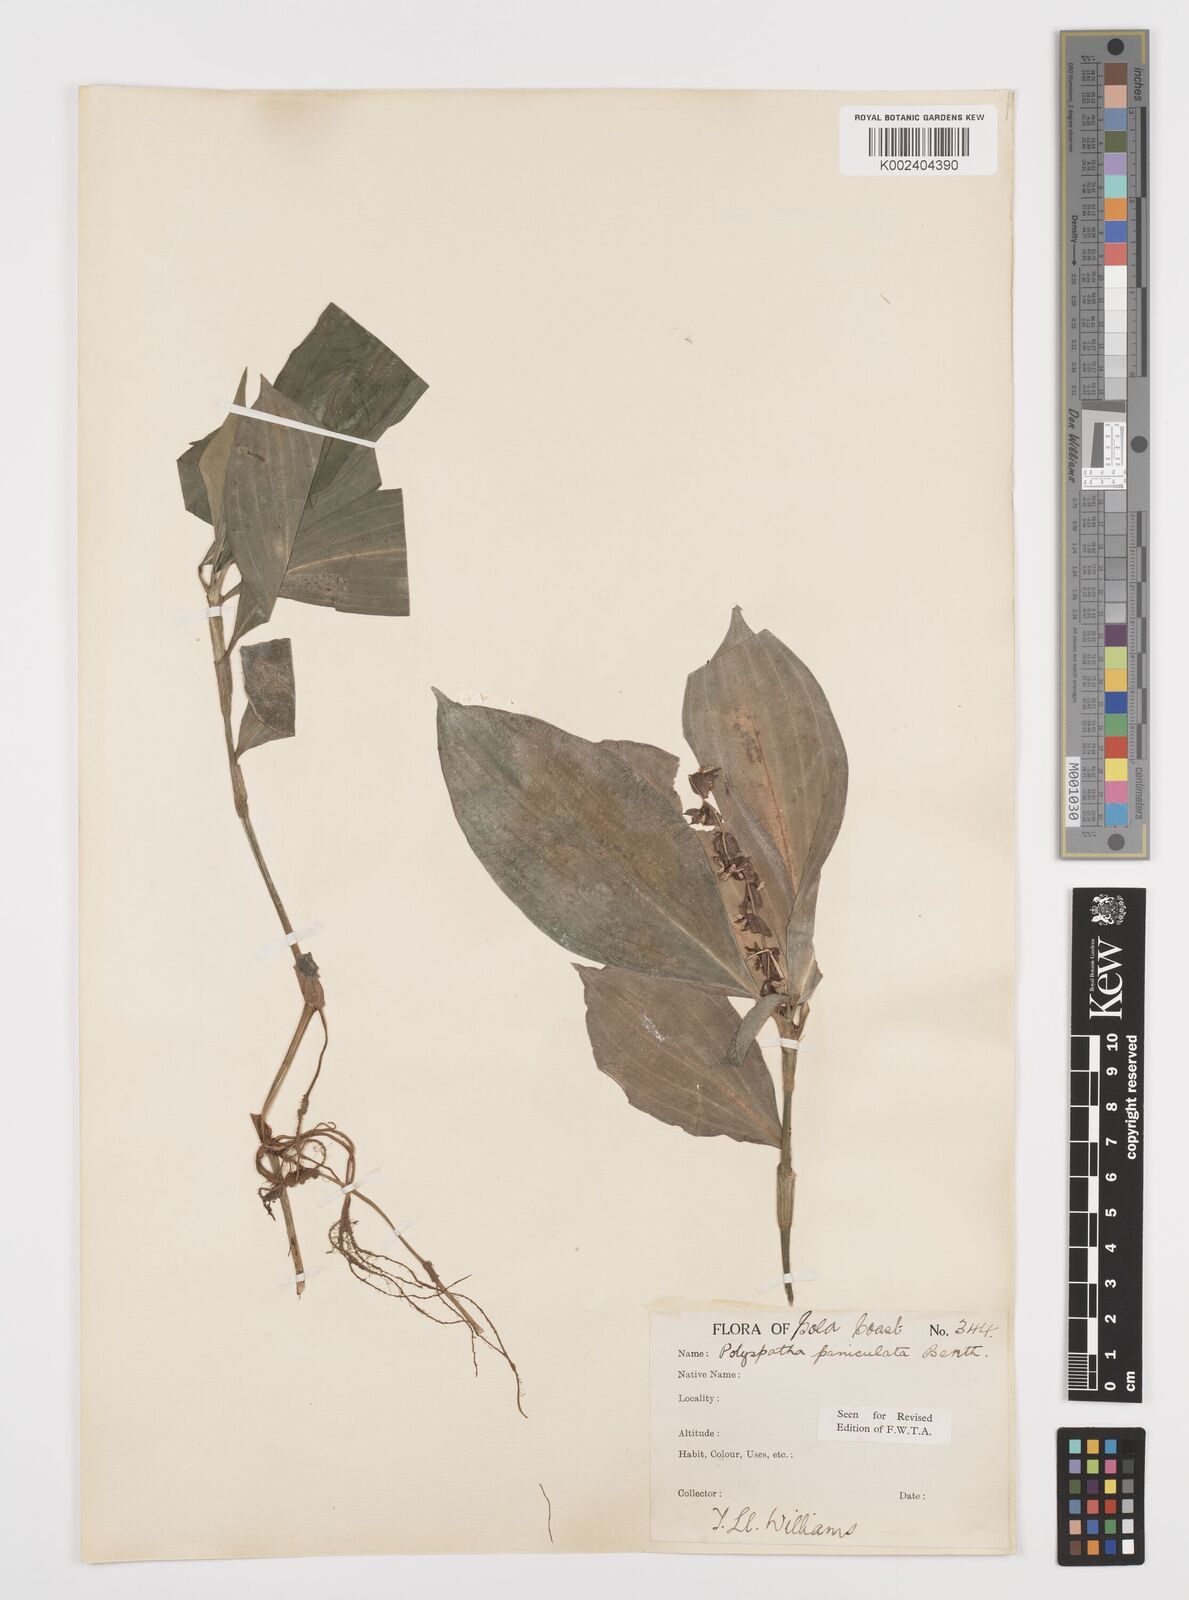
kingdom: Plantae
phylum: Tracheophyta
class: Liliopsida
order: Commelinales
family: Commelinaceae
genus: Polyspatha
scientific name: Polyspatha paniculata
